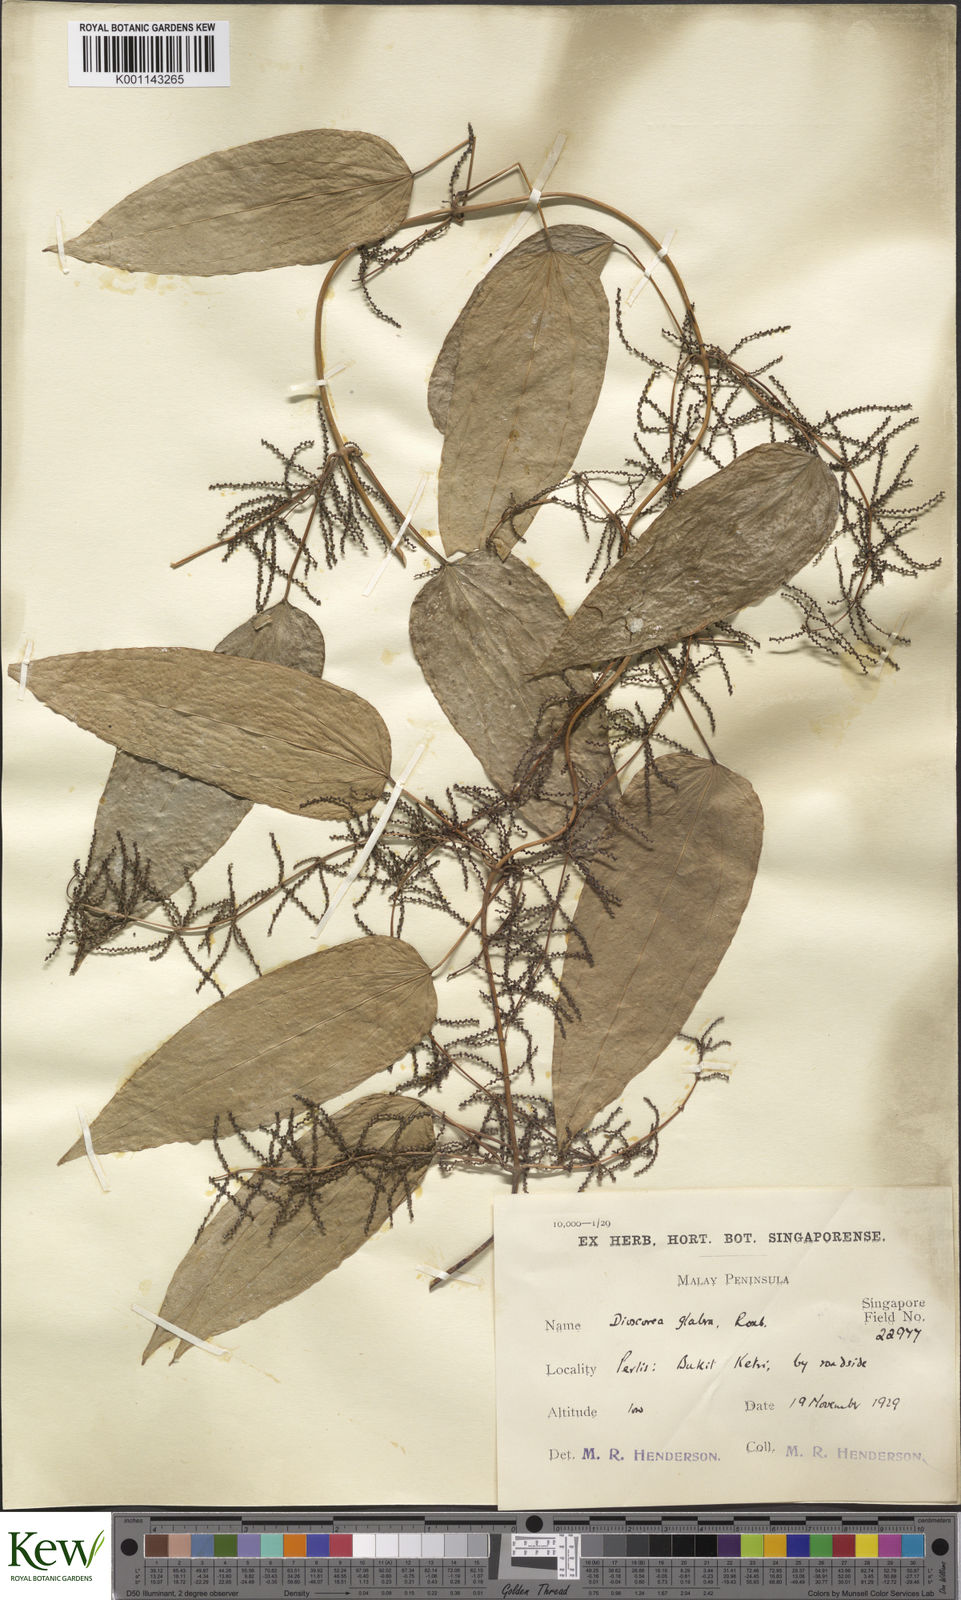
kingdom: Plantae
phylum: Tracheophyta
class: Liliopsida
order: Dioscoreales
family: Dioscoreaceae
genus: Dioscorea
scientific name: Dioscorea glabra
